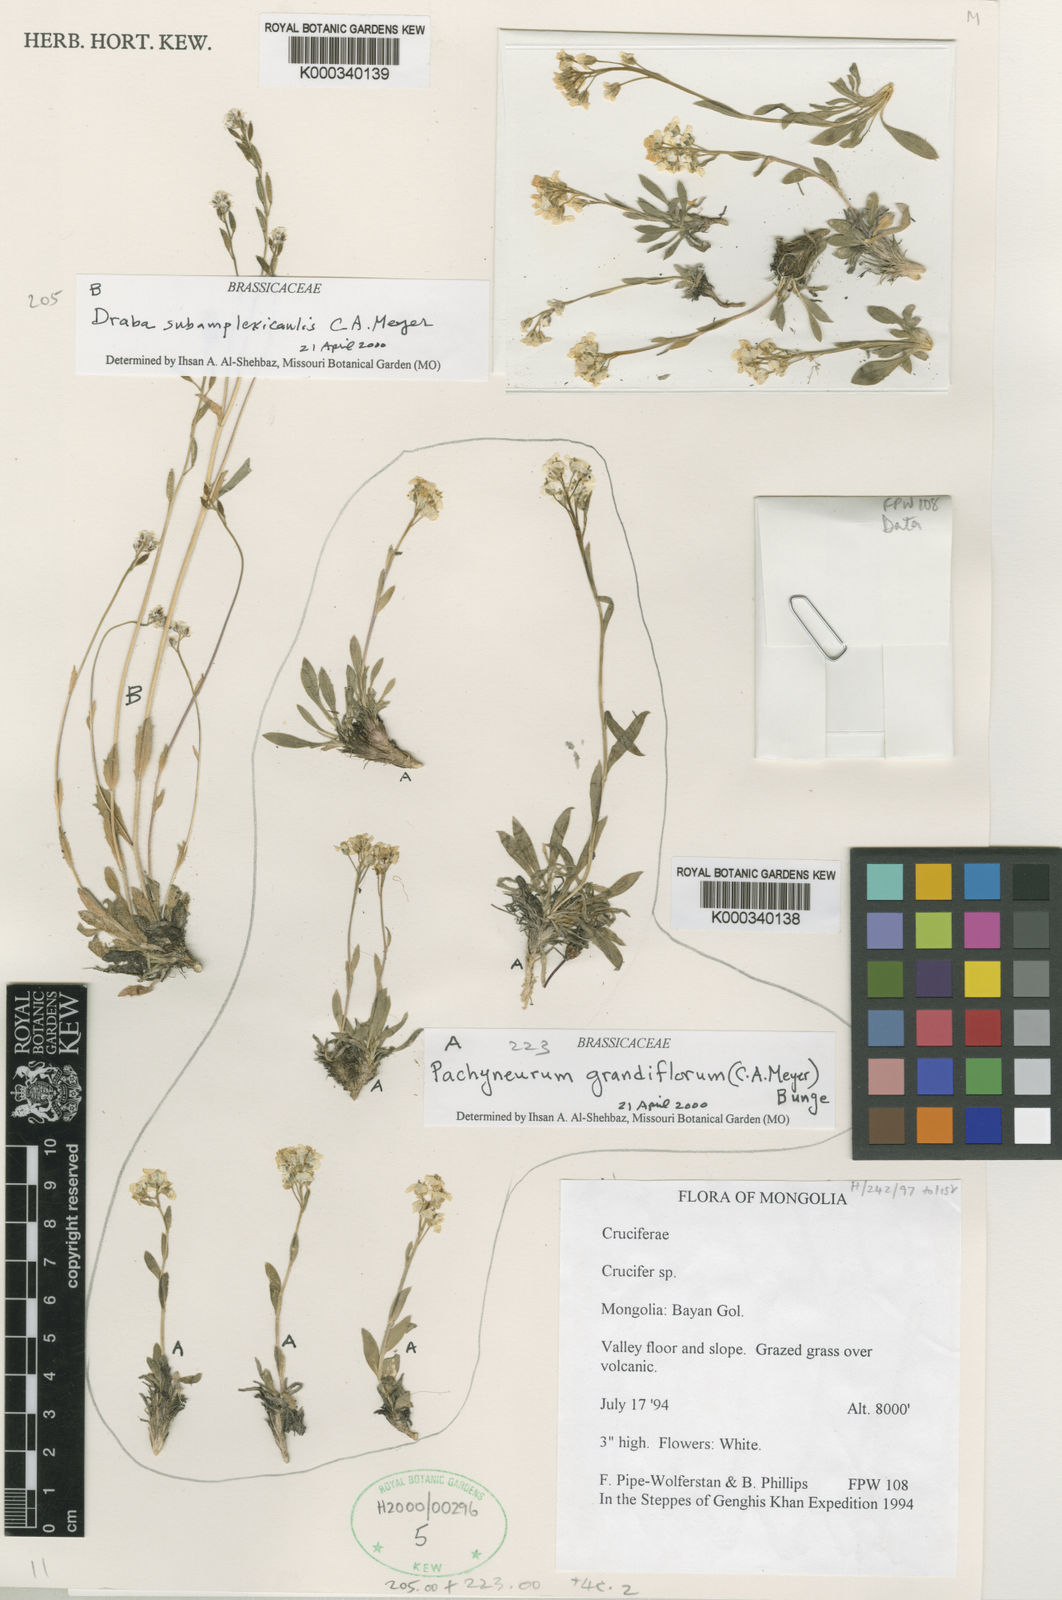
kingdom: Plantae
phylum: Tracheophyta
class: Magnoliopsida
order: Brassicales
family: Brassicaceae
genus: Pachyneurum
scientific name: Pachyneurum grandiflorum
